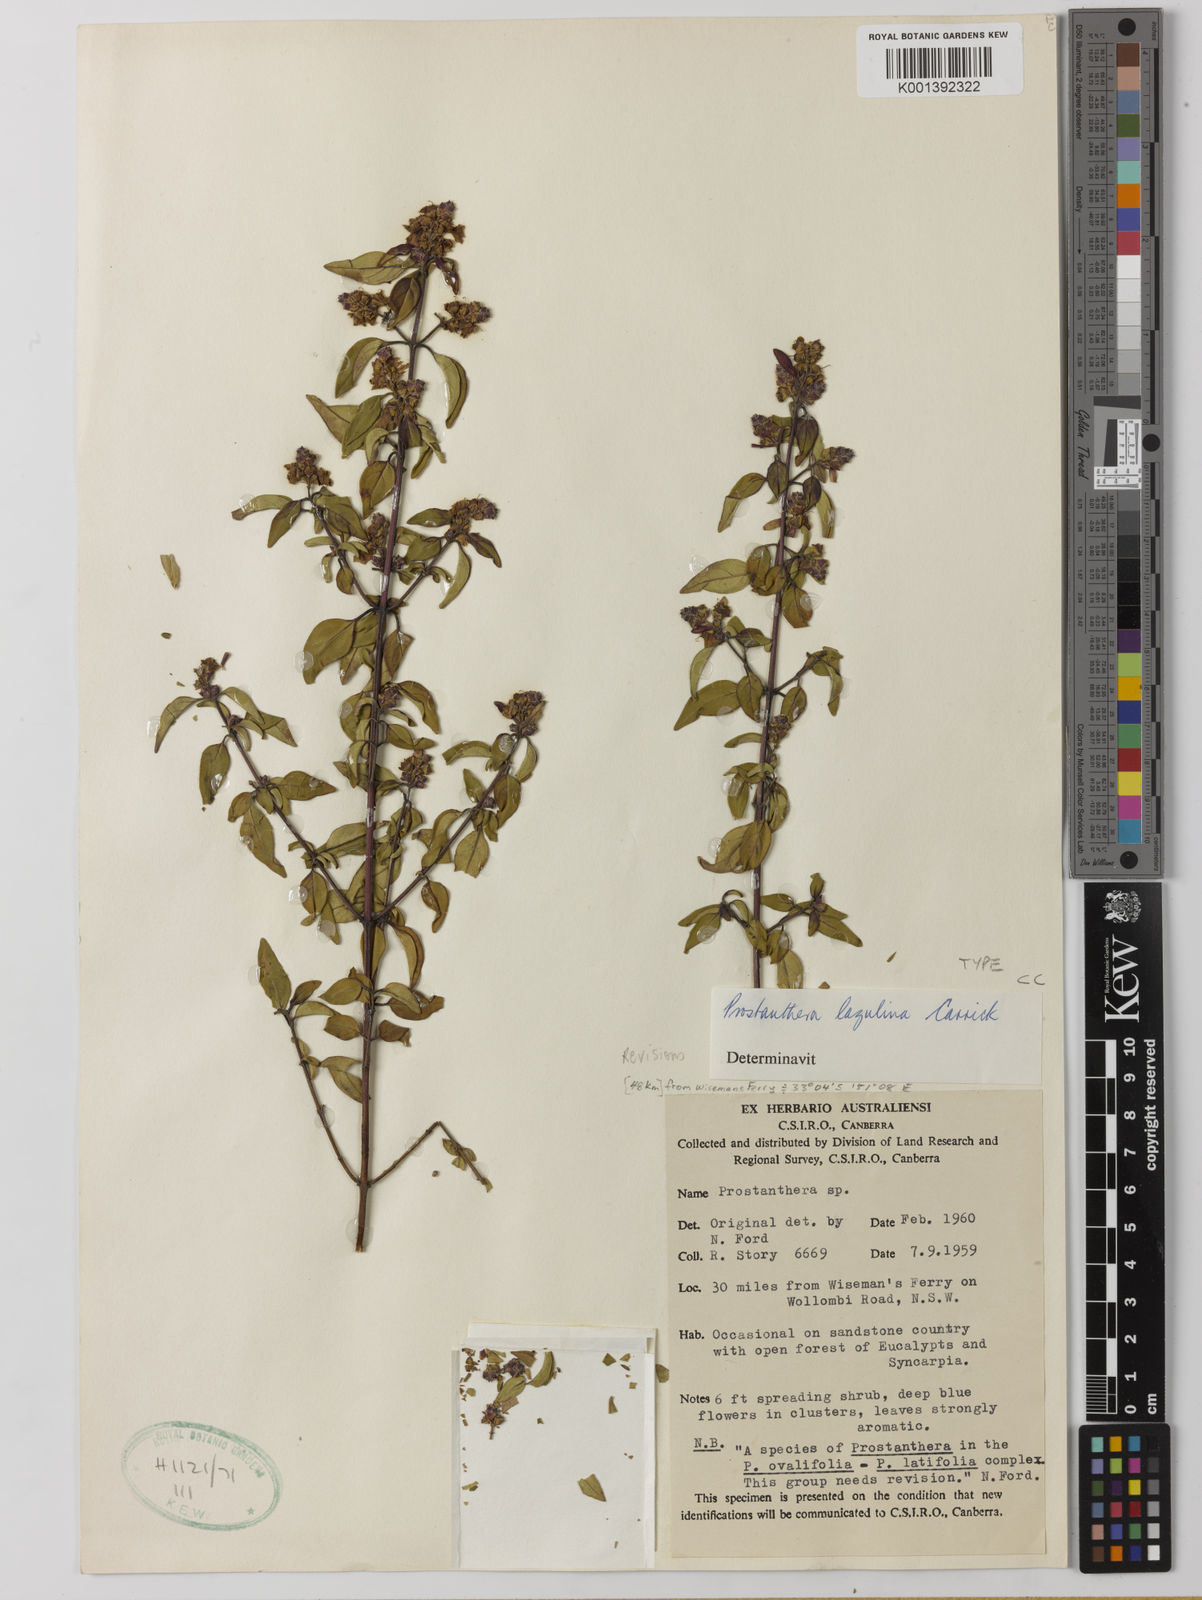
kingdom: Plantae
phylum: Tracheophyta
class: Magnoliopsida
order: Lamiales
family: Lamiaceae
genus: Prostanthera
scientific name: Prostanthera
